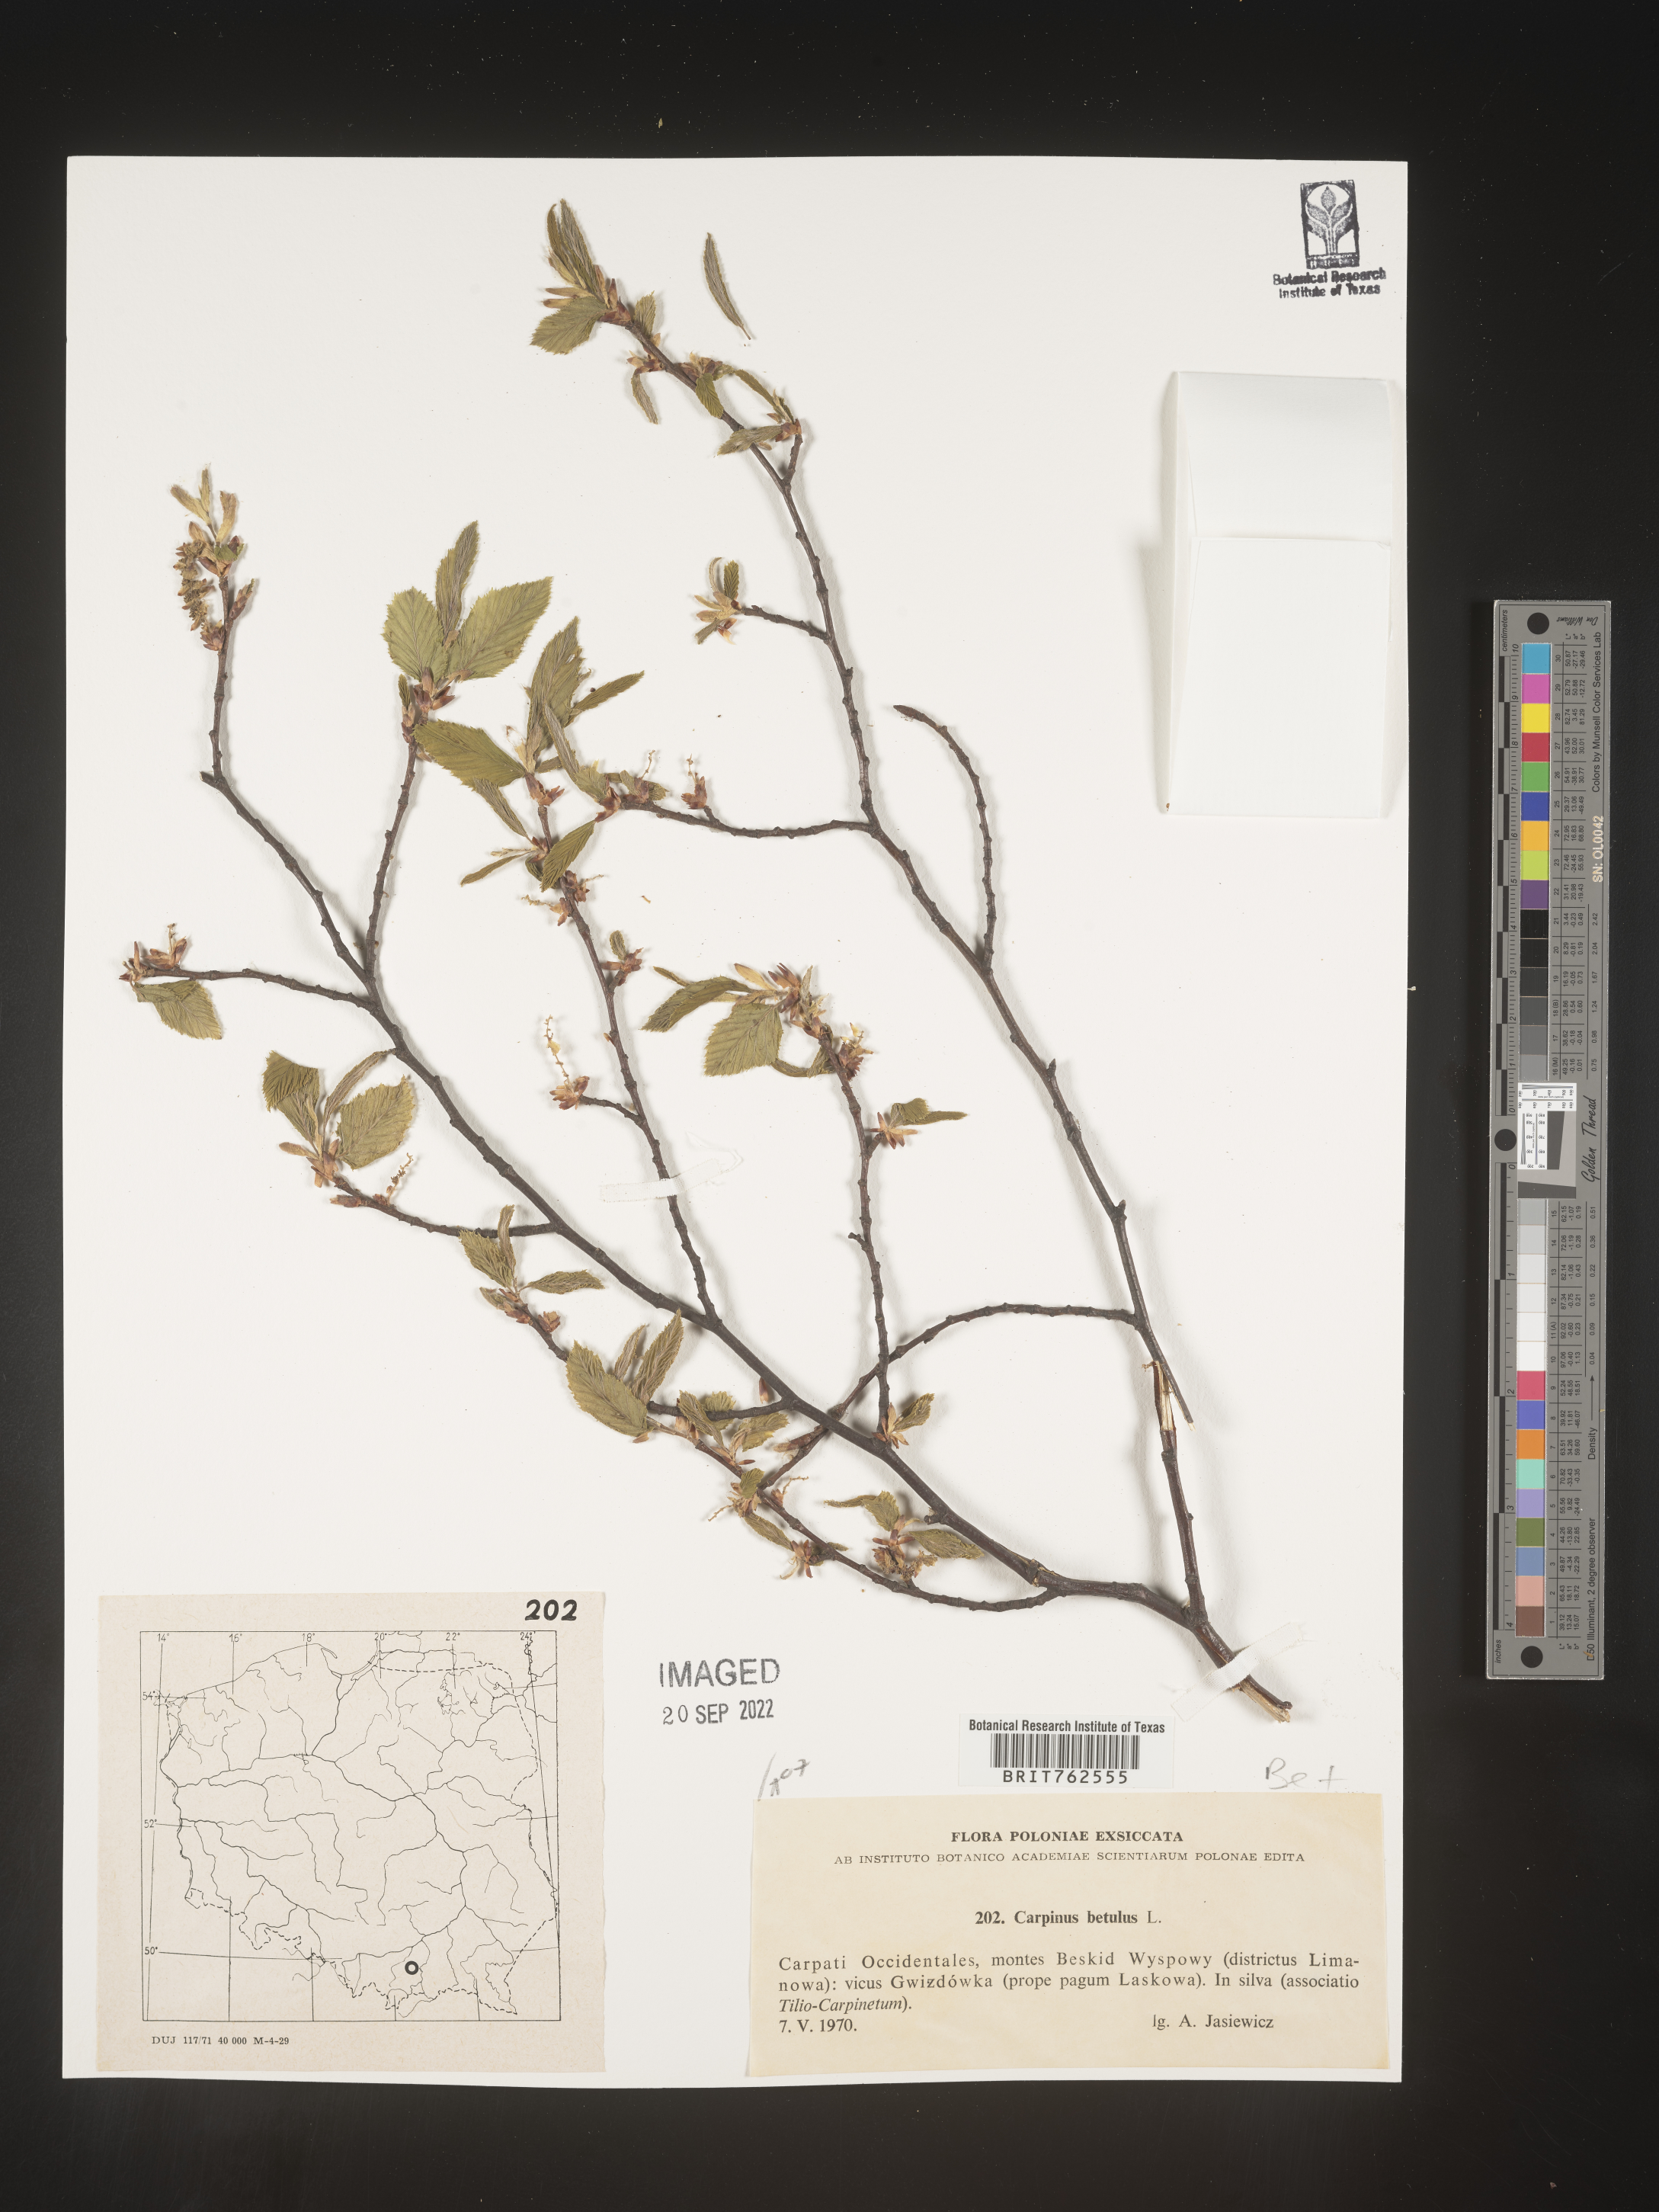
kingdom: Plantae
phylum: Tracheophyta
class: Magnoliopsida
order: Fagales
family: Betulaceae
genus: Carpinus
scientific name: Carpinus
